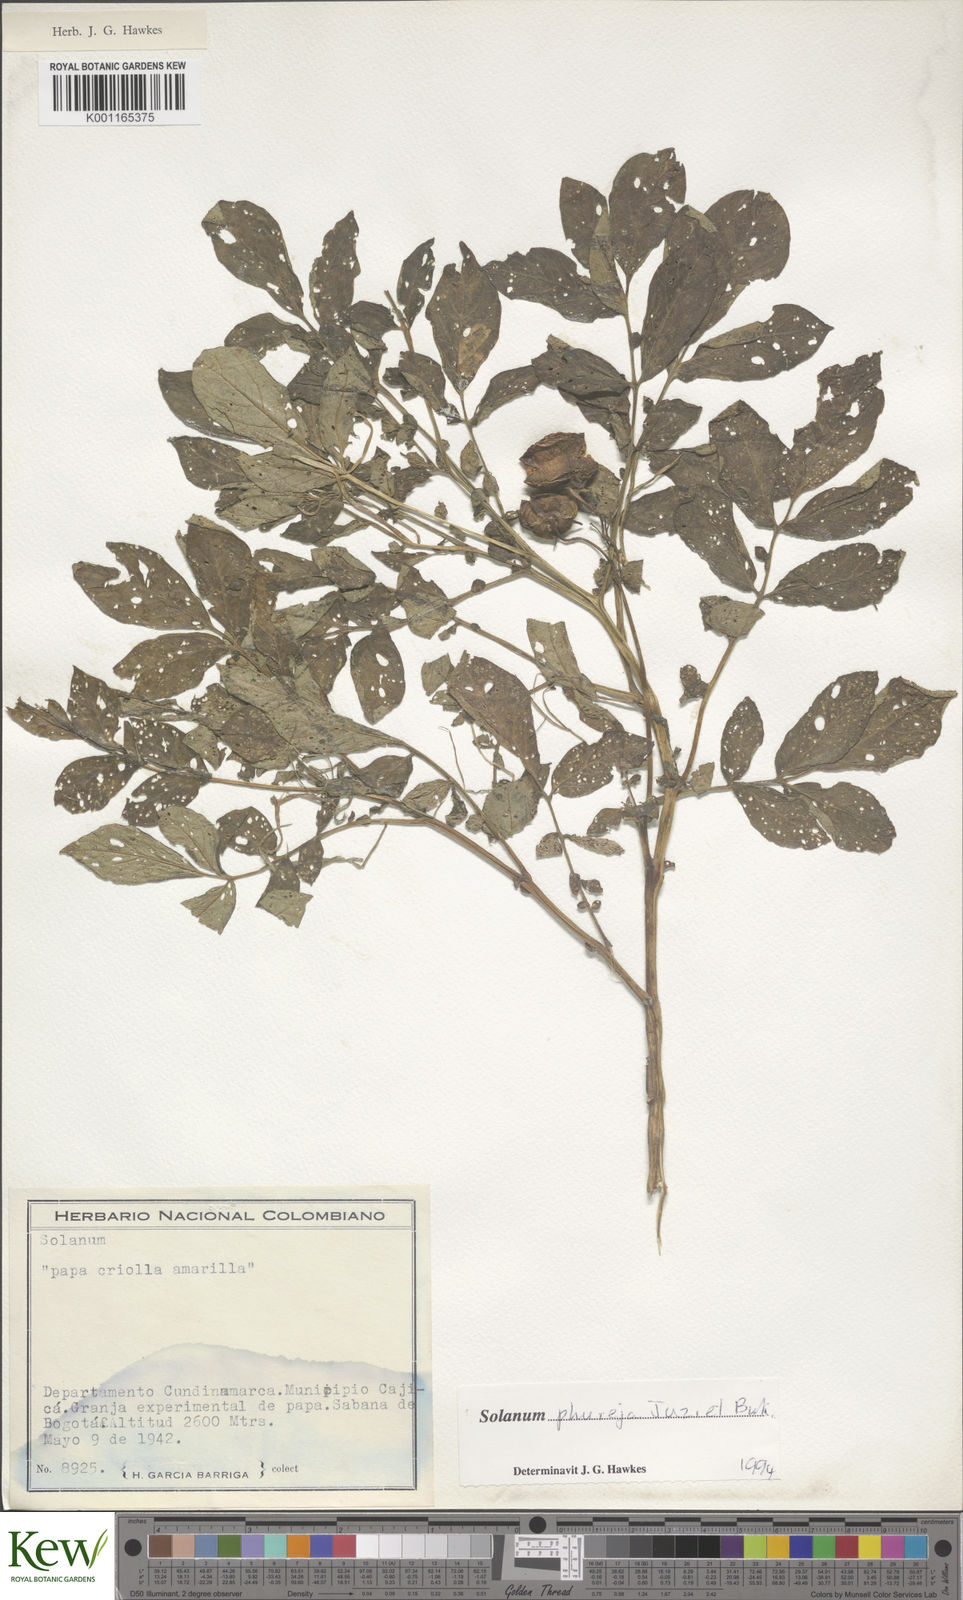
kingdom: Plantae
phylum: Tracheophyta
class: Magnoliopsida
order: Solanales
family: Solanaceae
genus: Solanum
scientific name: Solanum tuberosum
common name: Potato
